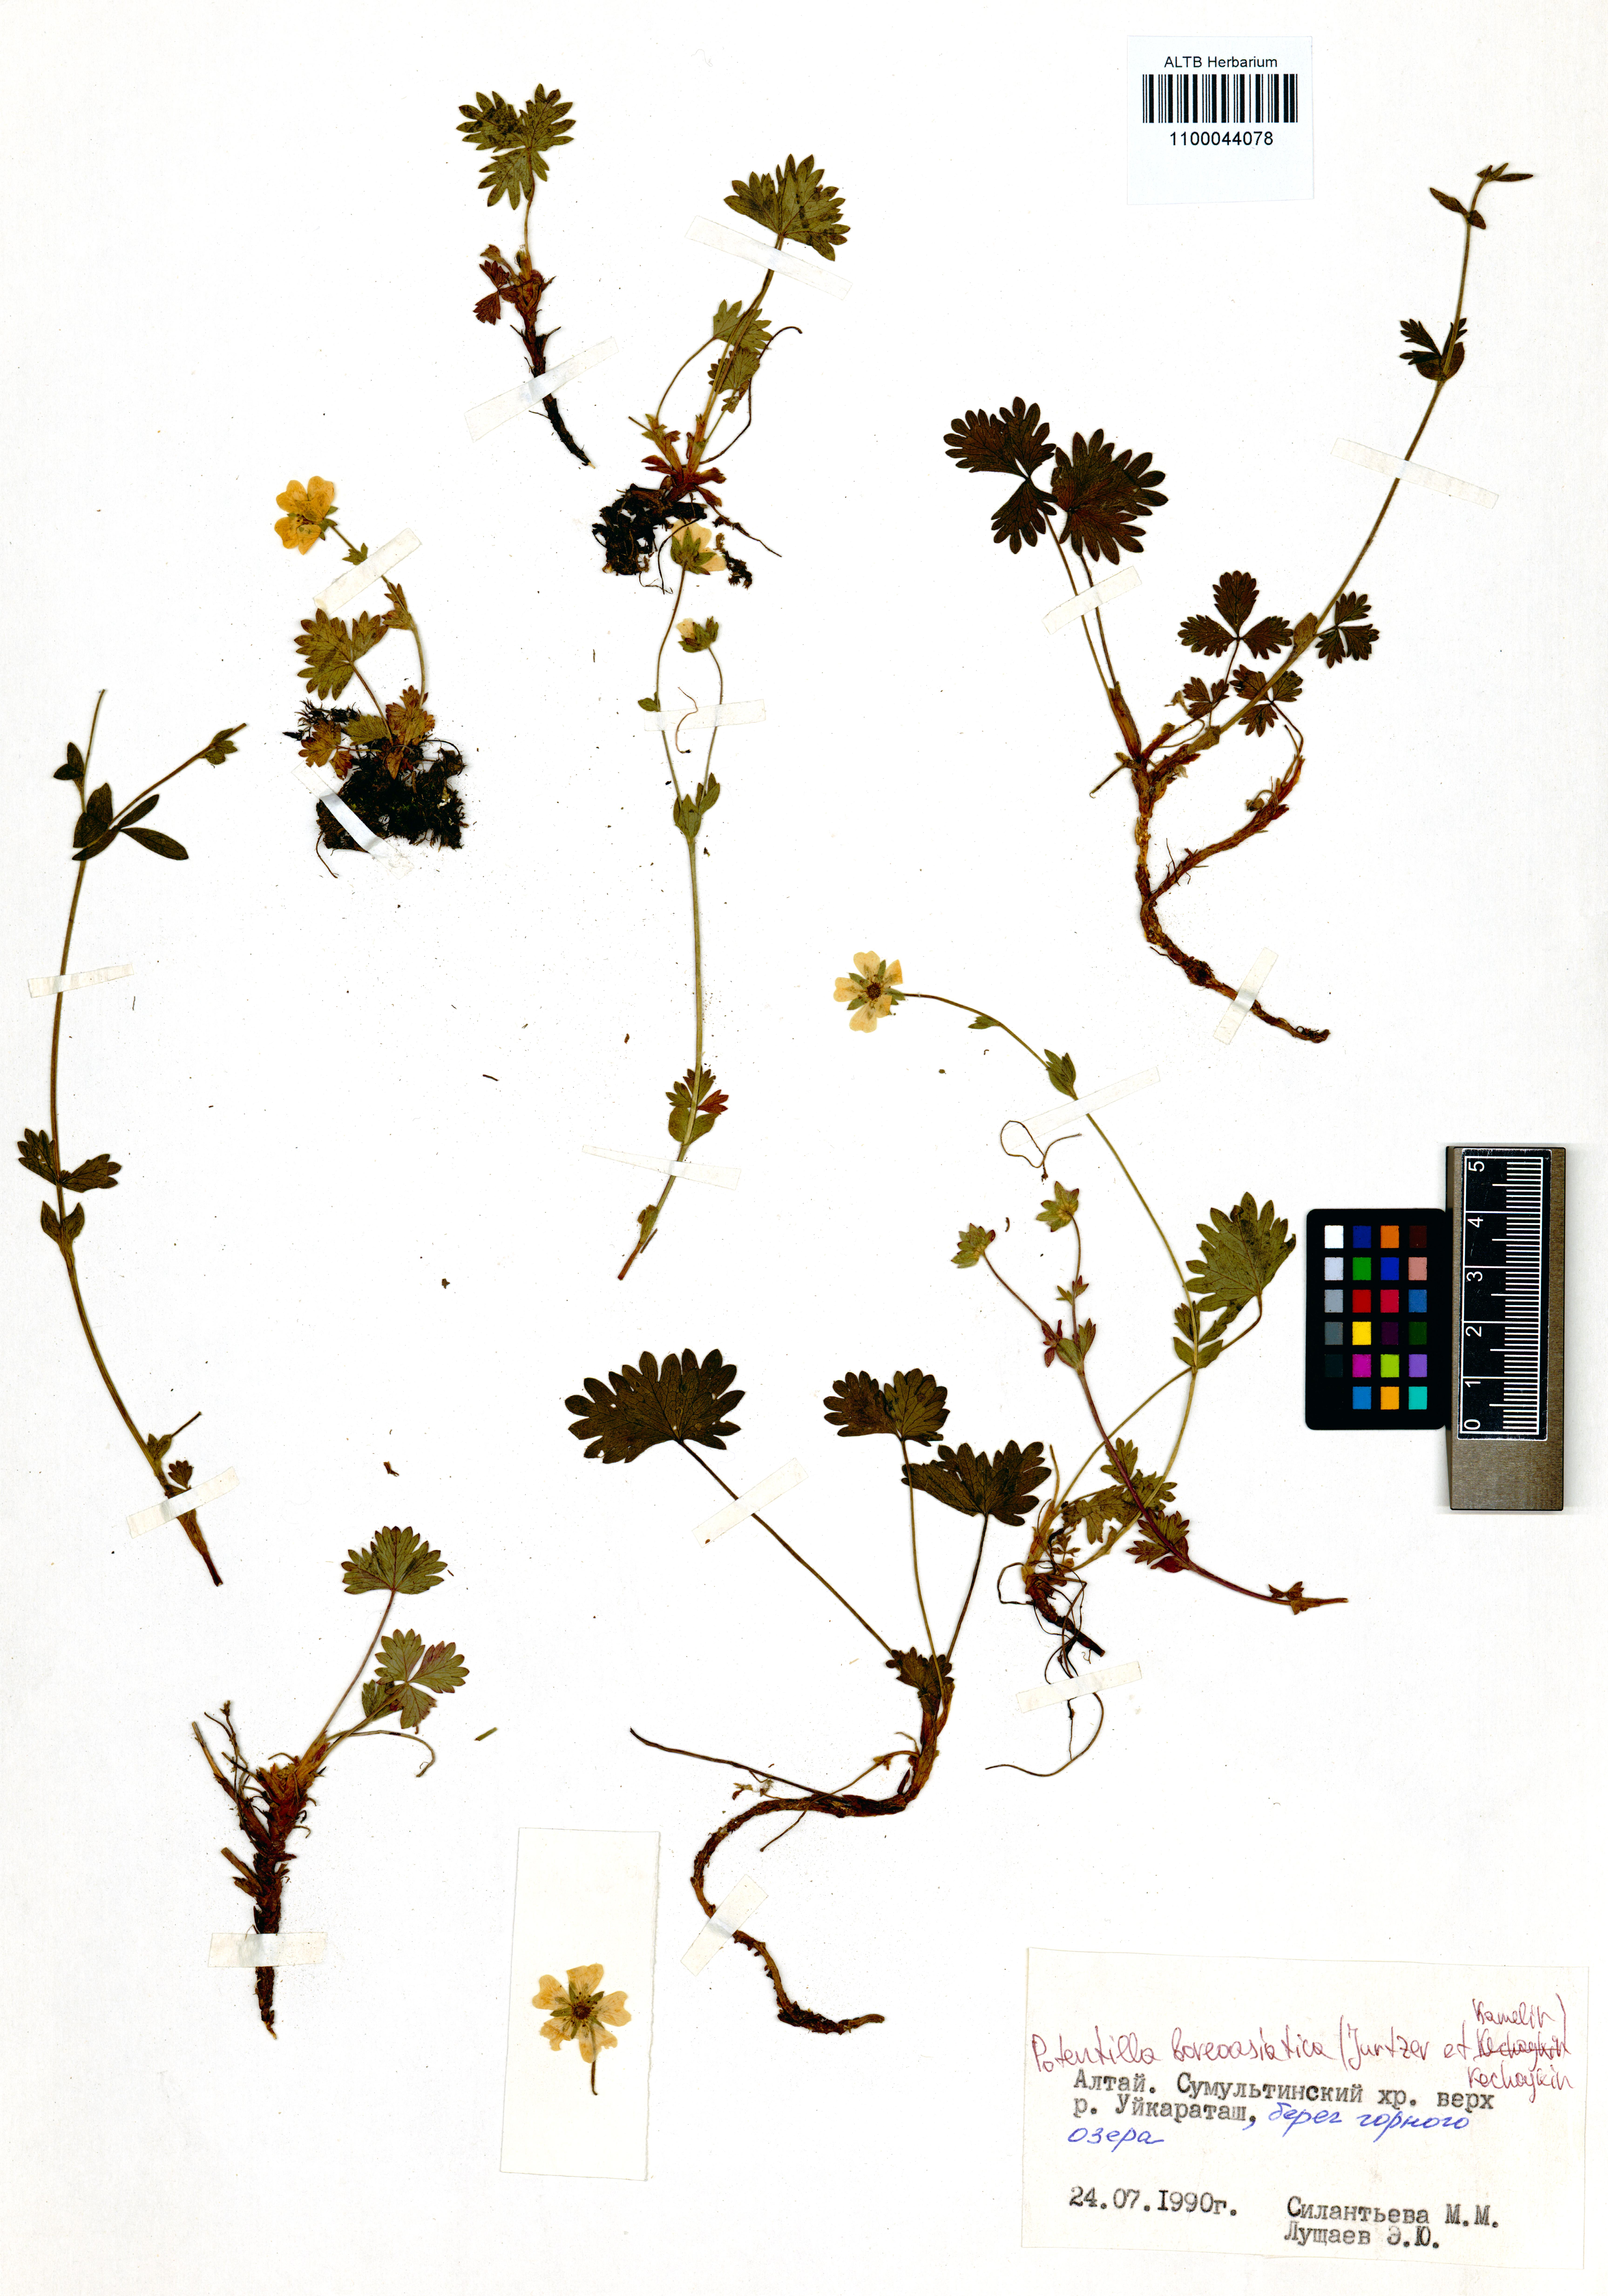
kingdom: Plantae
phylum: Tracheophyta
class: Magnoliopsida
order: Rosales
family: Rosaceae
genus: Potentilla
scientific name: Potentilla
